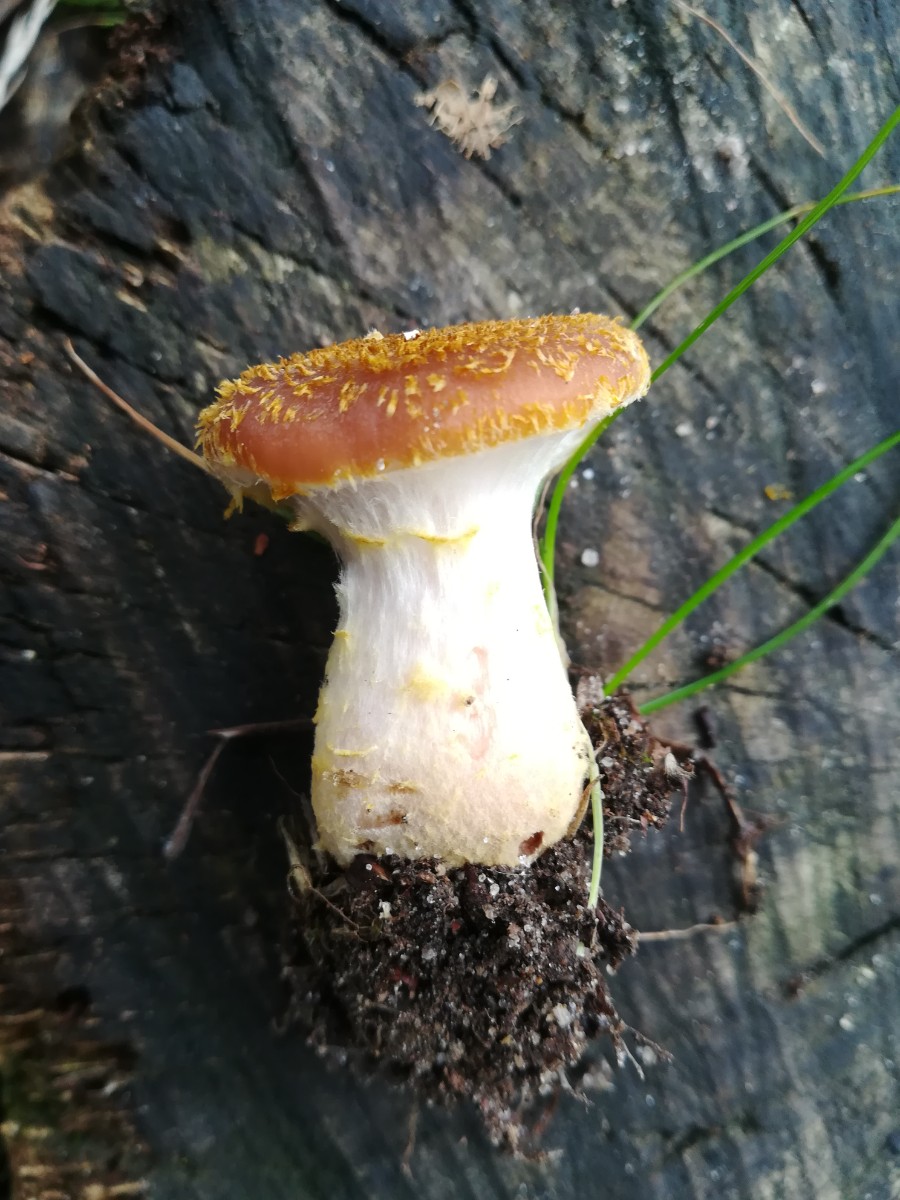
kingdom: Fungi
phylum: Basidiomycota
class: Agaricomycetes
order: Agaricales
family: Physalacriaceae
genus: Armillaria
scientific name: Armillaria lutea
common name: køllestokket honningsvamp
